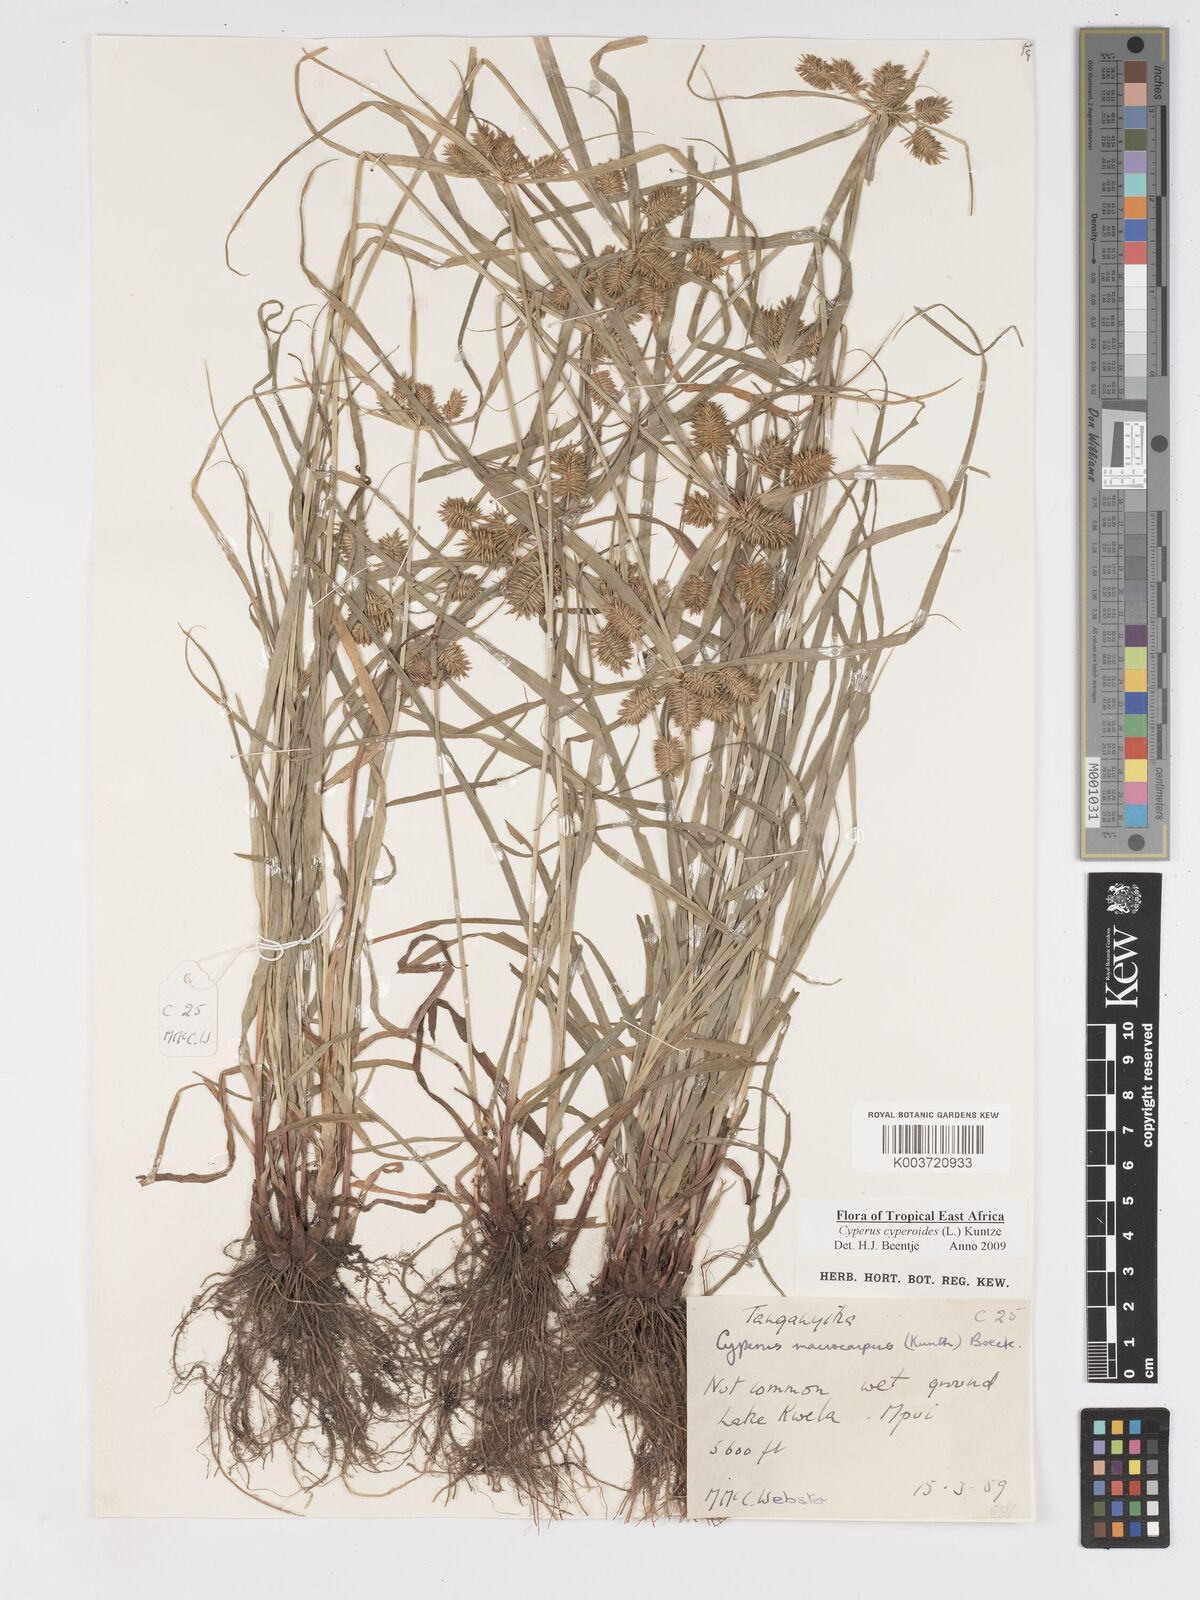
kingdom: Plantae
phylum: Tracheophyta
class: Liliopsida
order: Poales
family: Cyperaceae
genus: Cyperus
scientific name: Cyperus macrocarpus
